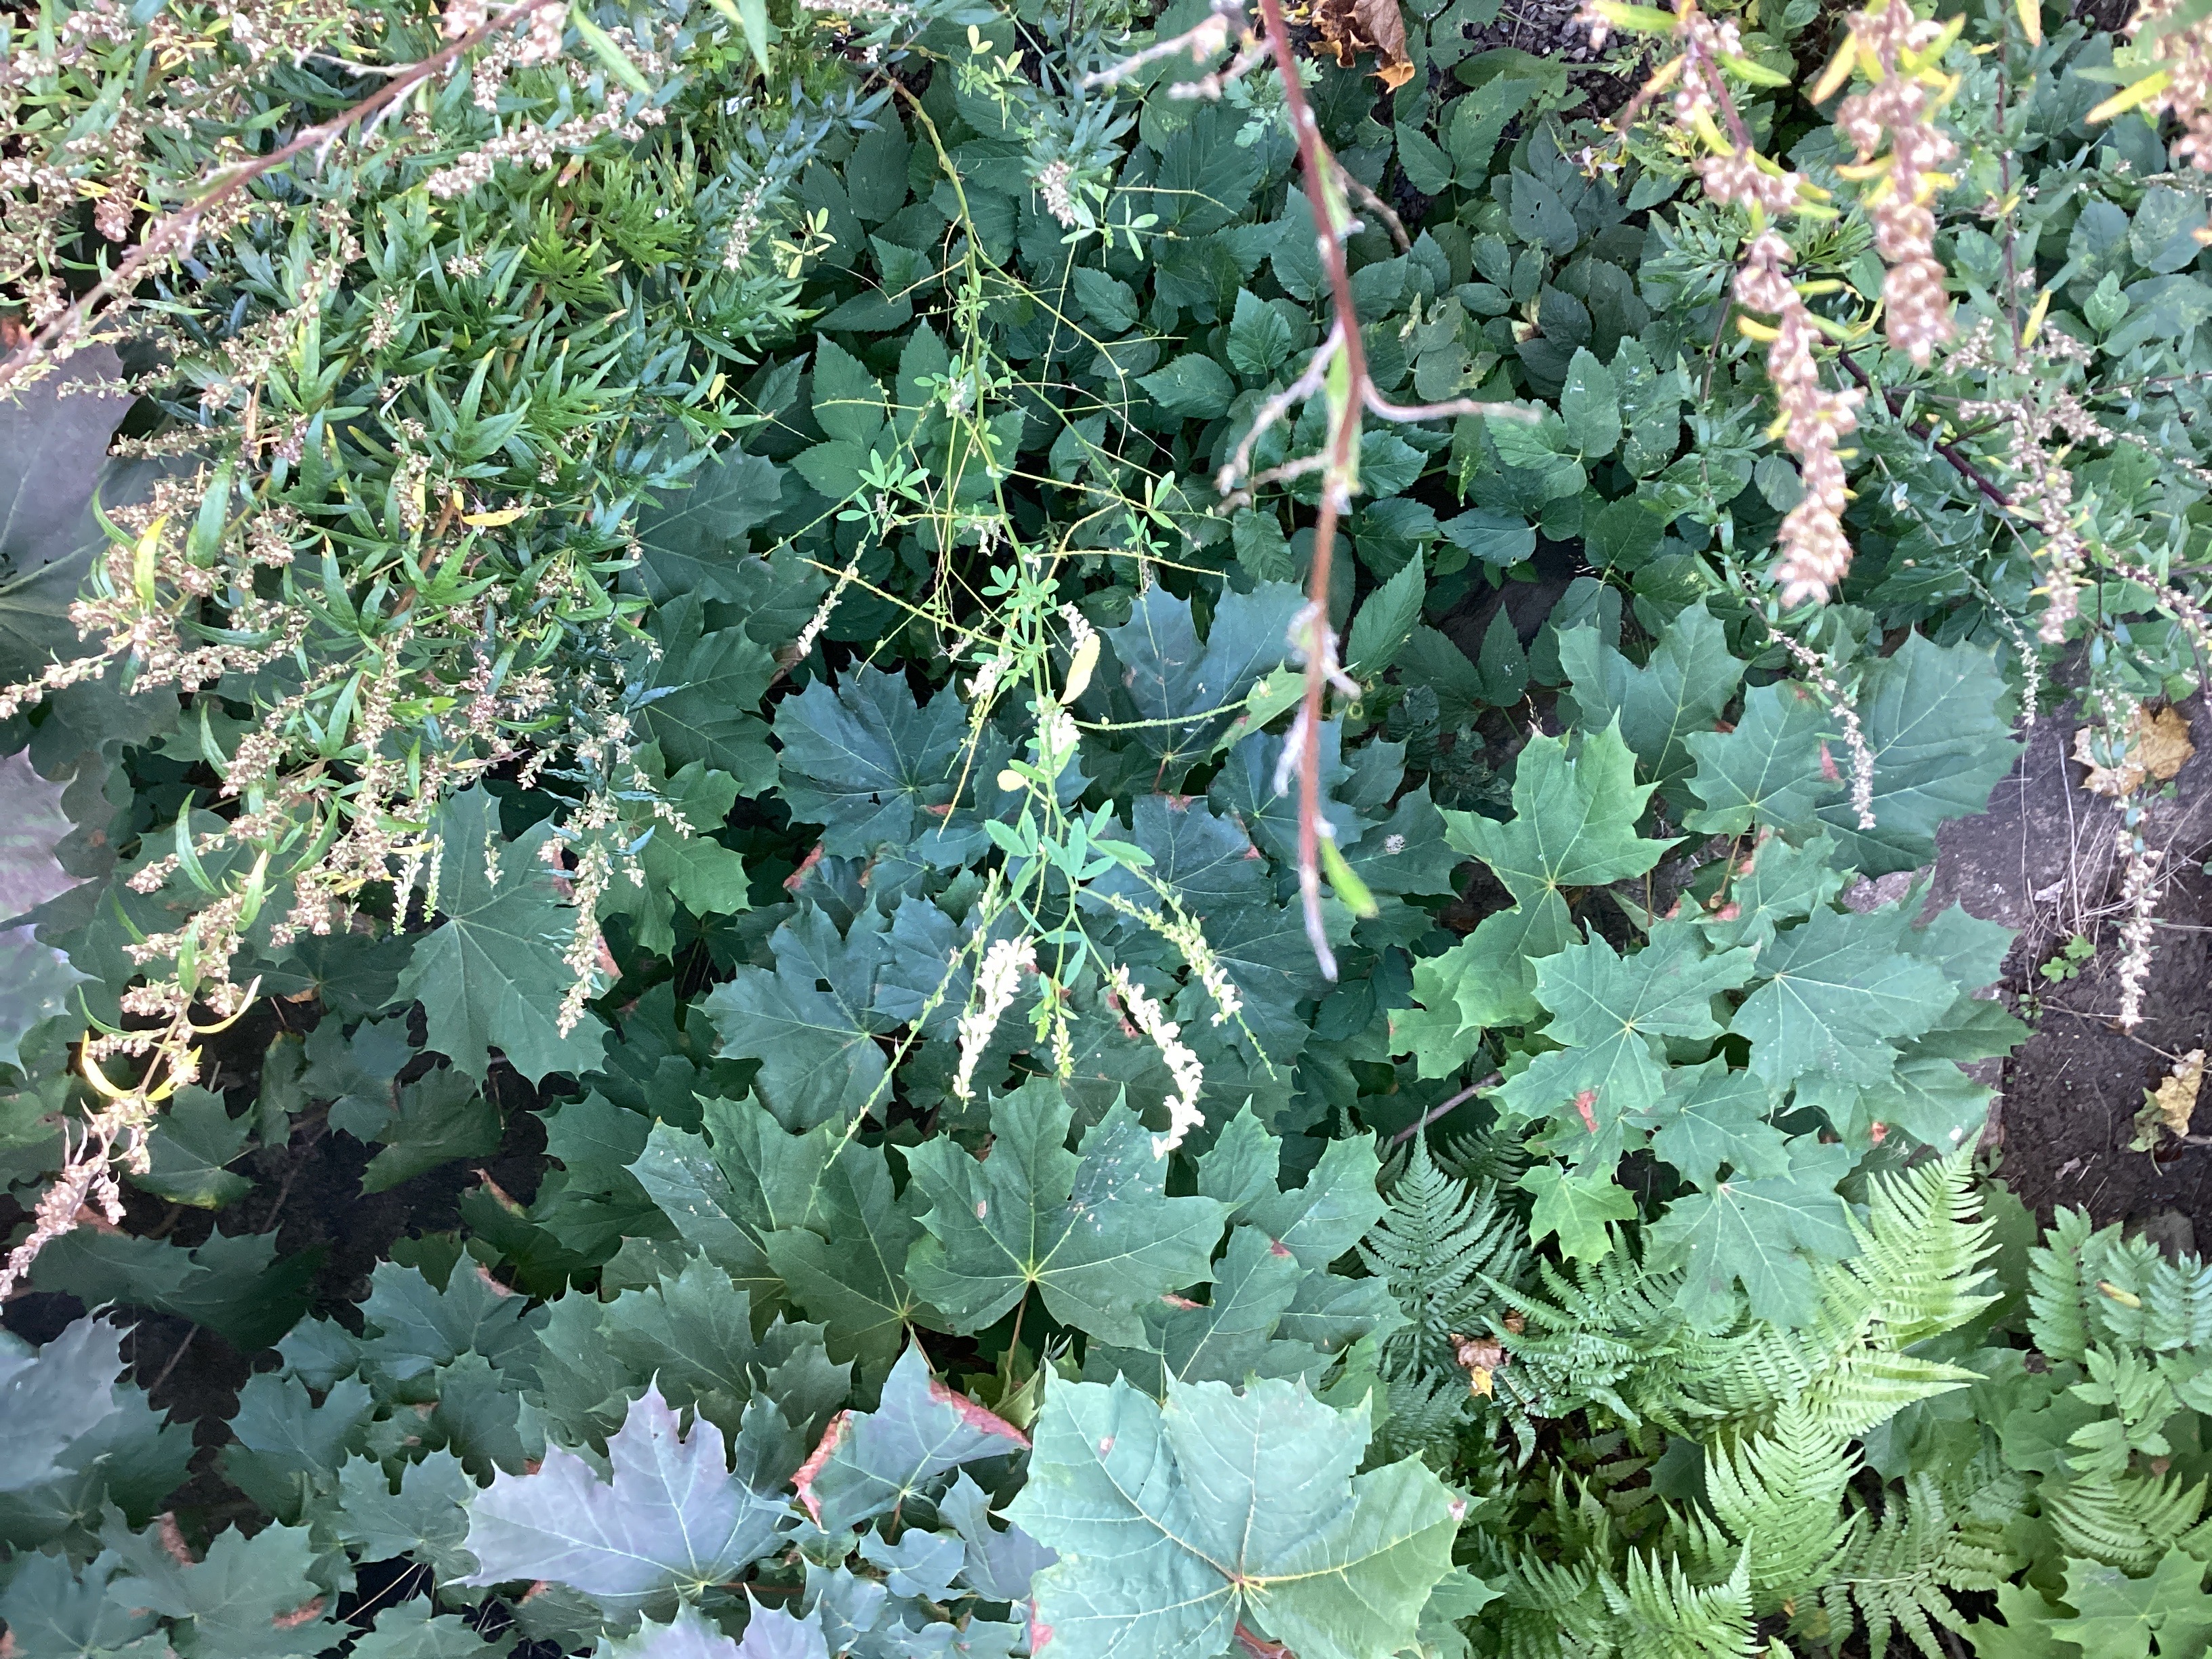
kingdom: Plantae
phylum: Tracheophyta
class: Magnoliopsida
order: Fabales
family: Fabaceae
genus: Melilotus
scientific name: Melilotus albus
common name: hvitsteinkløver
